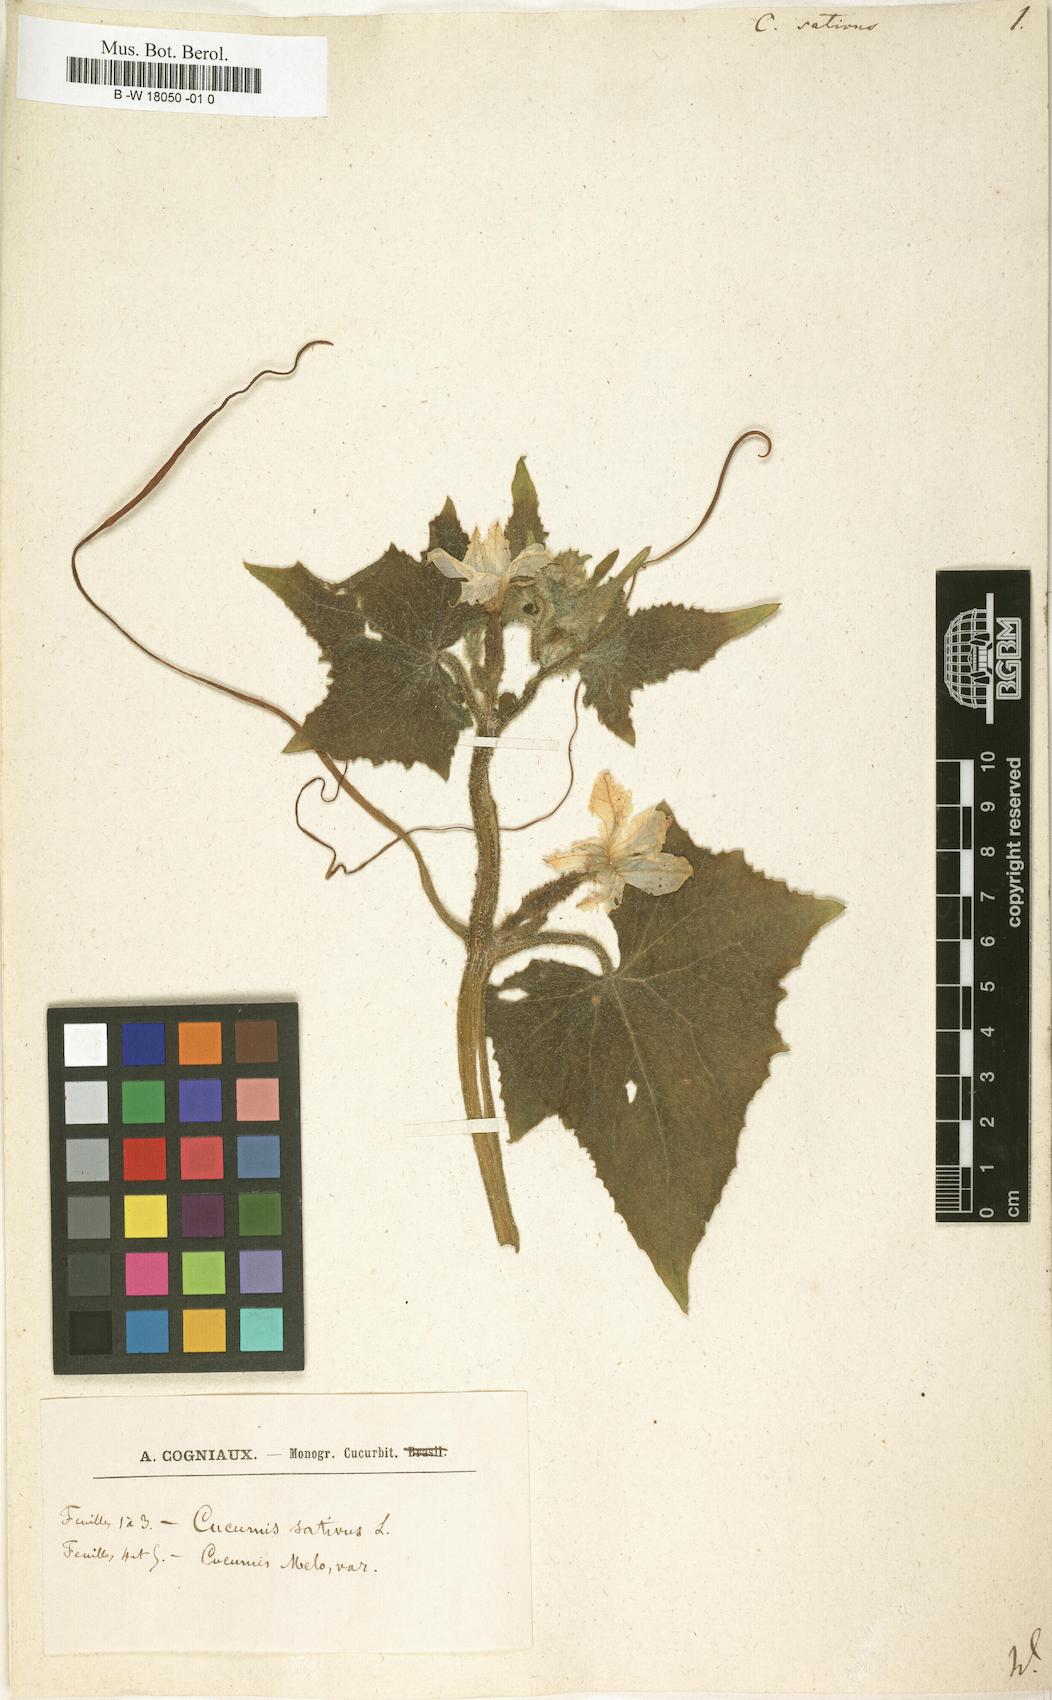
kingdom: Plantae
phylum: Tracheophyta
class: Magnoliopsida
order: Cucurbitales
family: Cucurbitaceae
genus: Cucumis
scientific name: Cucumis sativus
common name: Cucumber
